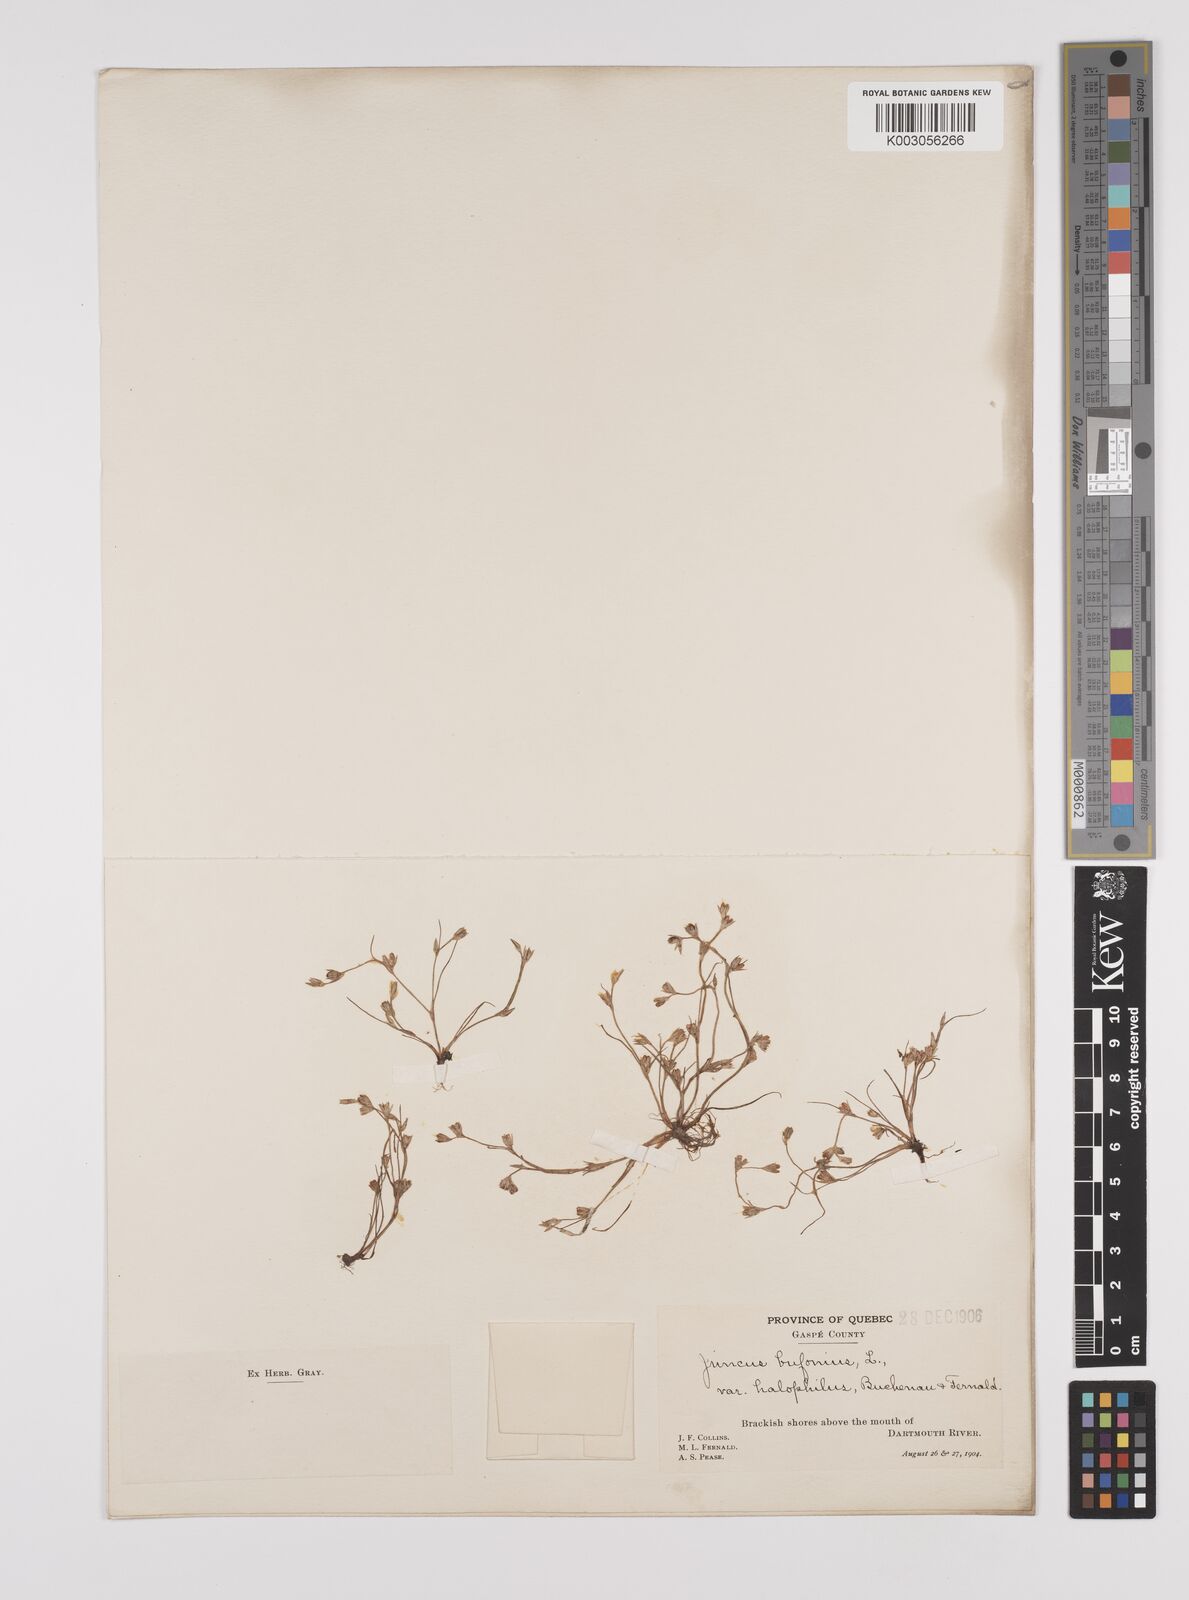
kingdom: Plantae
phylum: Tracheophyta
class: Liliopsida
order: Poales
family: Juncaceae
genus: Juncus
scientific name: Juncus ranarius
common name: Frog rush
